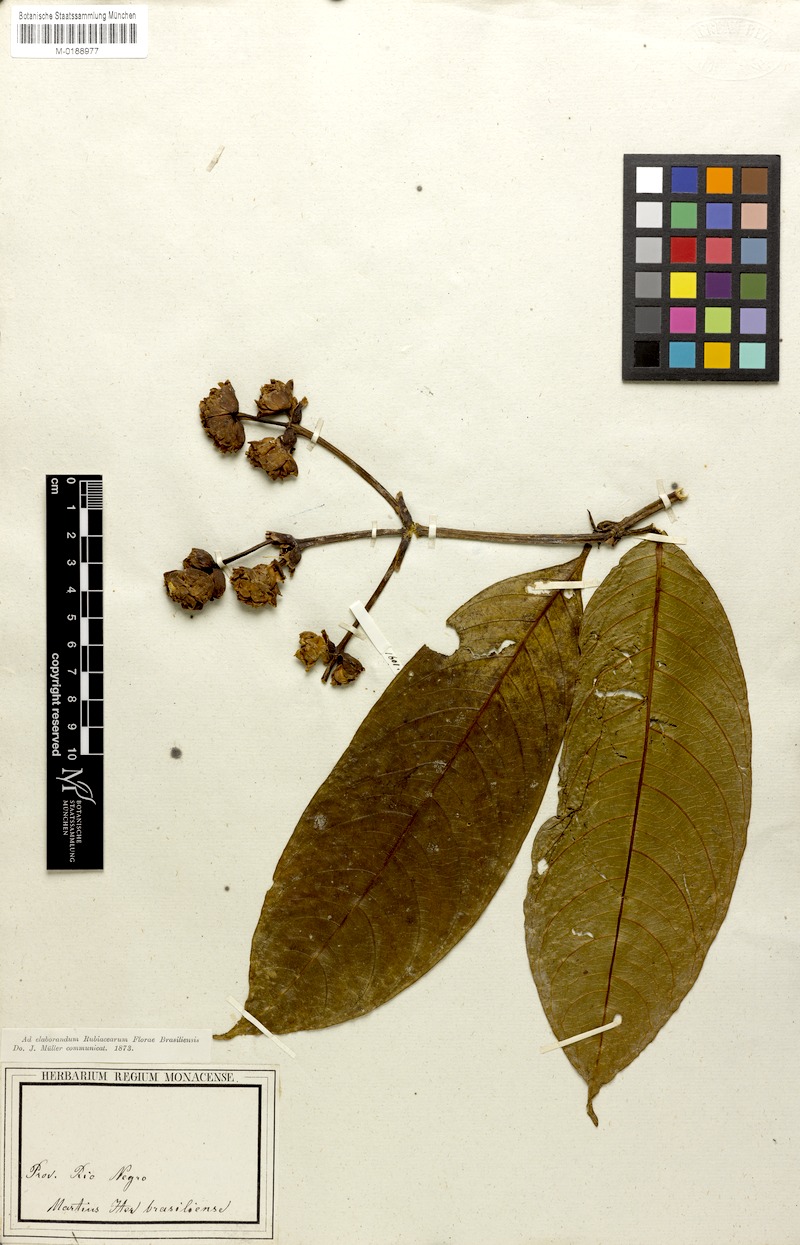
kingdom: Plantae
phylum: Tracheophyta
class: Magnoliopsida
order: Gentianales
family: Rubiaceae
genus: Psychotria
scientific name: Psychotria multiplex
